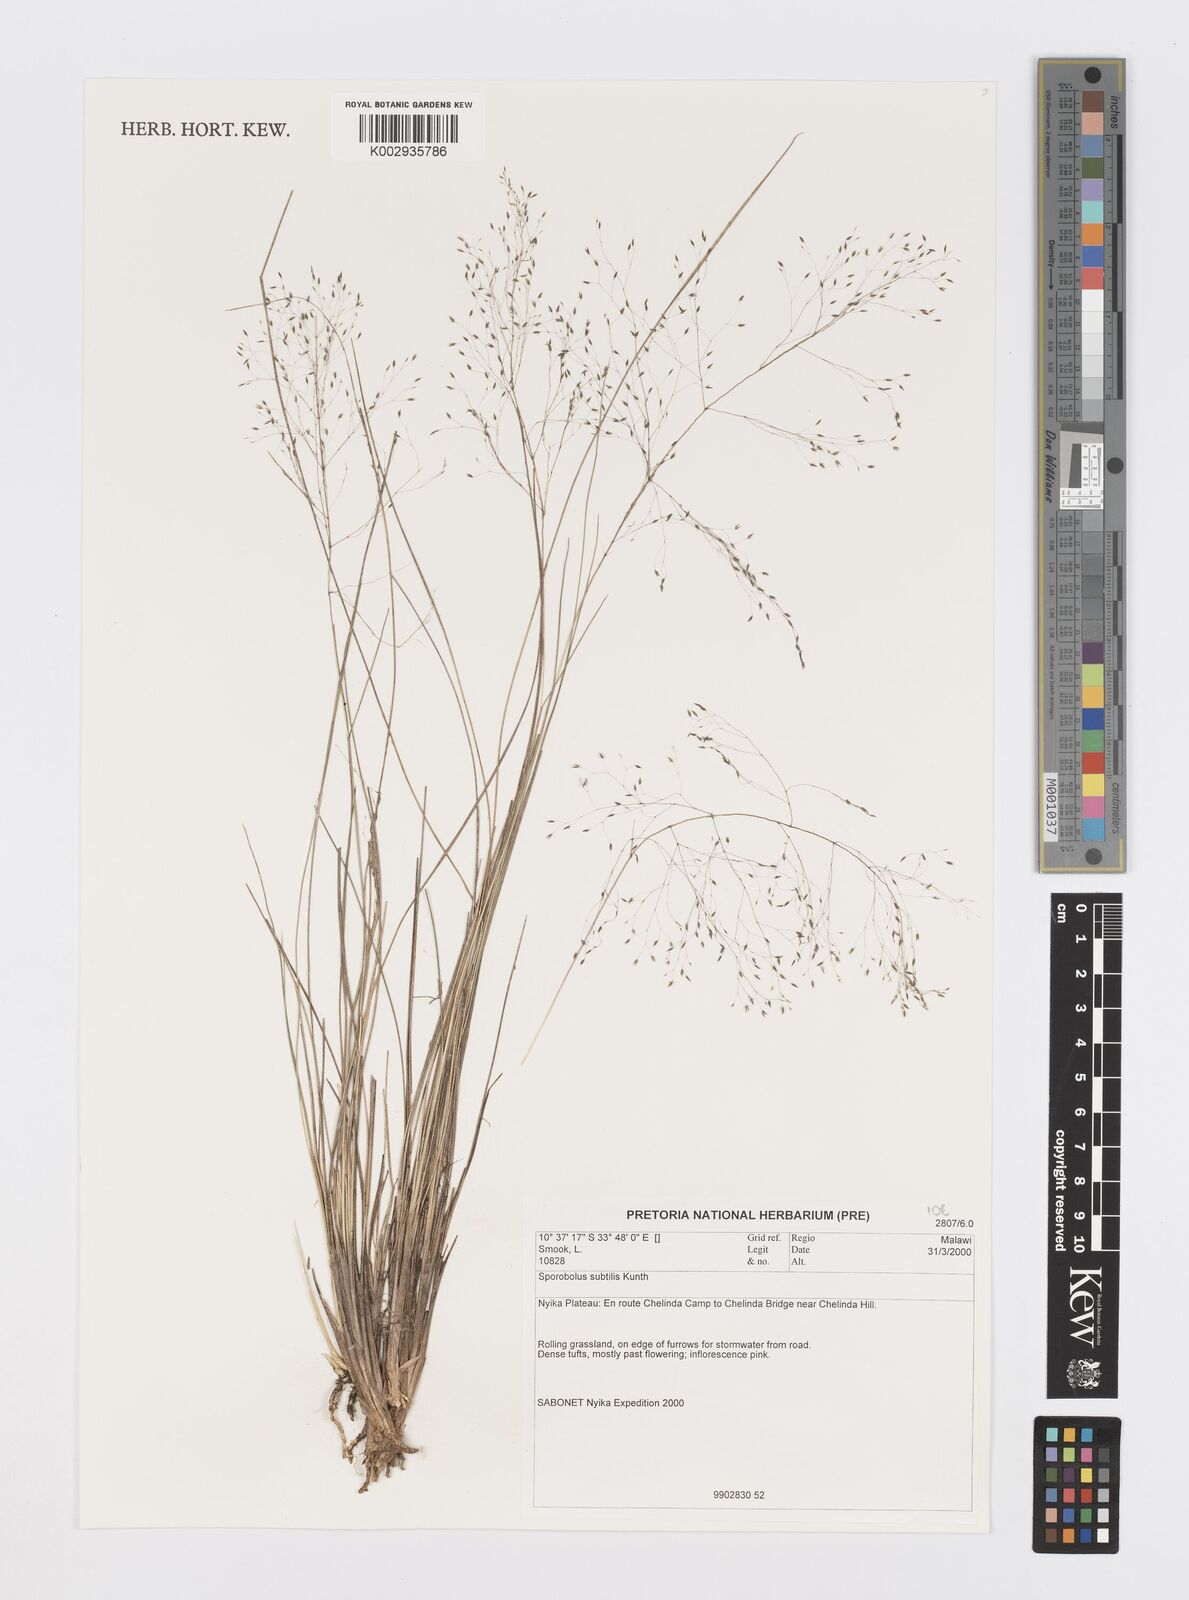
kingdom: Plantae
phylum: Tracheophyta
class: Liliopsida
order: Poales
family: Poaceae
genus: Sporobolus
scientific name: Sporobolus subtilis
